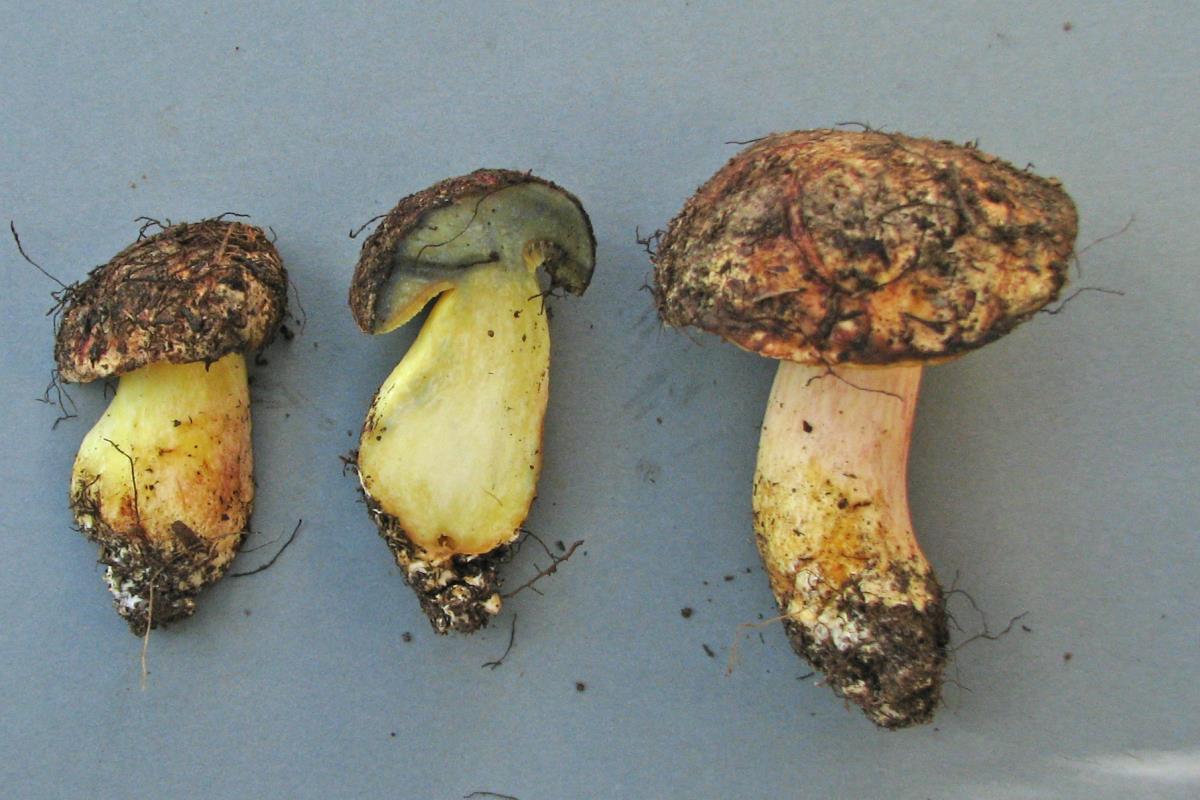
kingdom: Fungi
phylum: Basidiomycota
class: Agaricomycetes
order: Boletales
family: Boletaceae
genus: Xerocomus
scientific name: Xerocomus leptospermi
